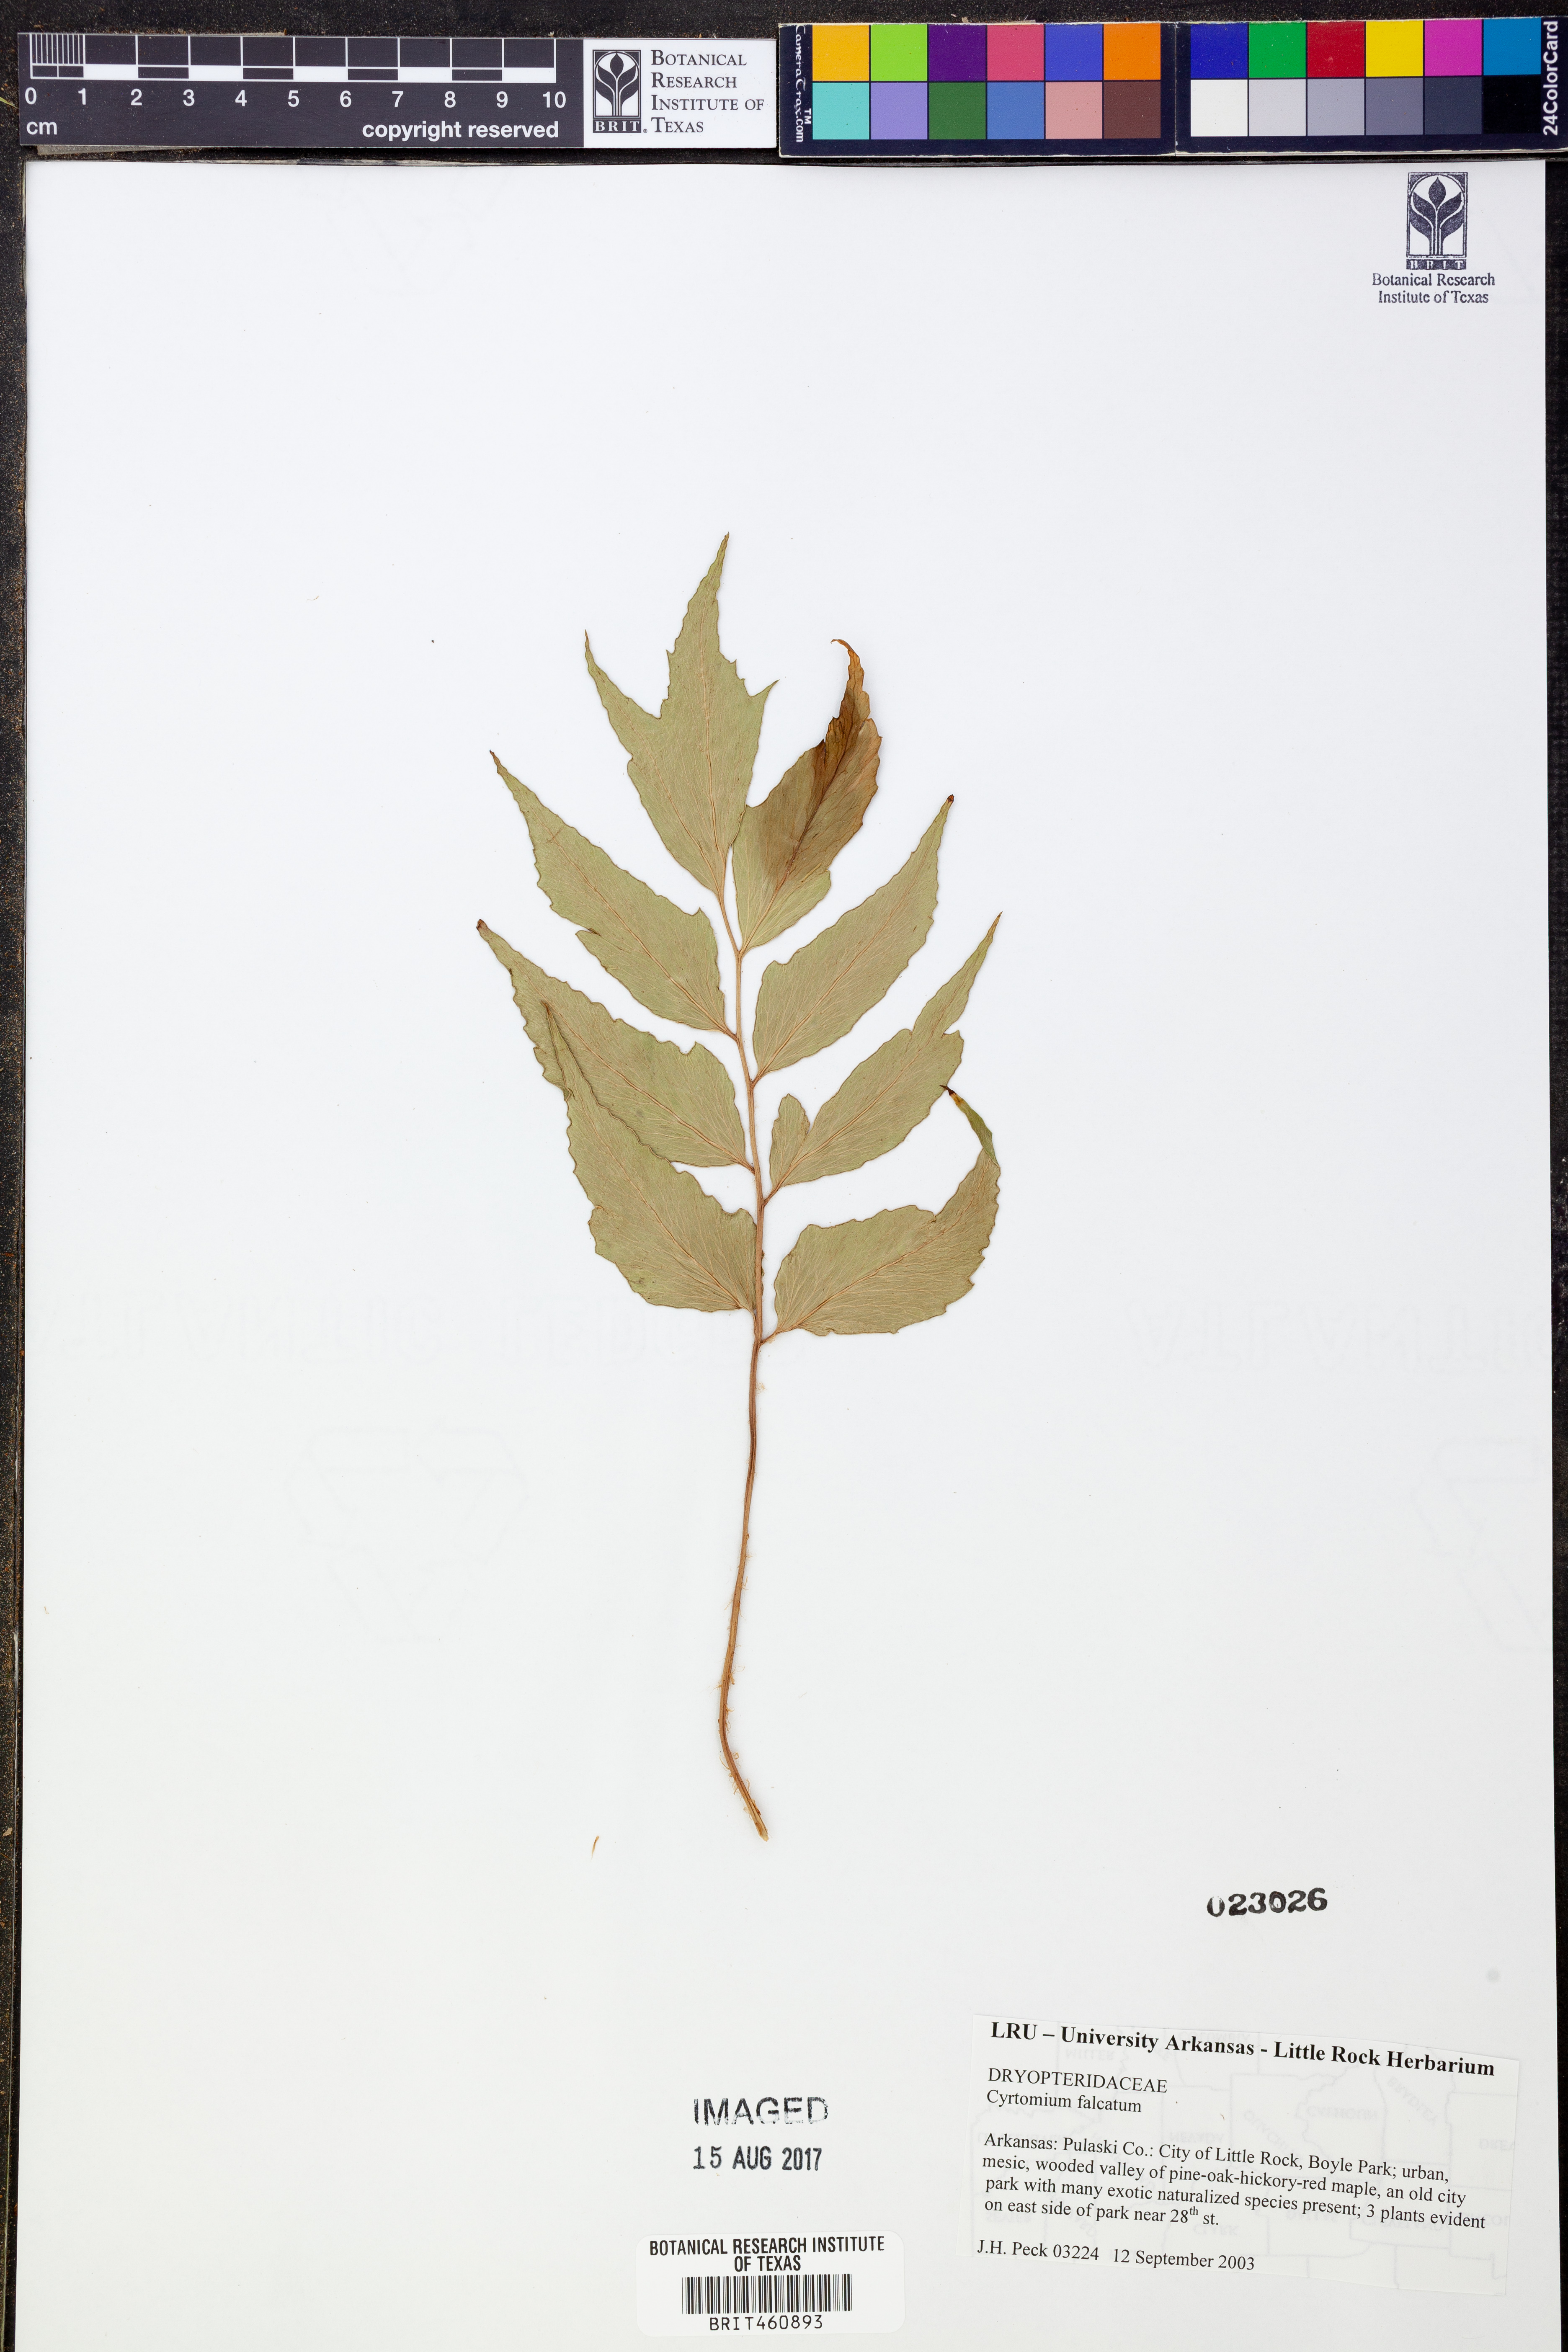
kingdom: Plantae
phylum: Tracheophyta
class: Polypodiopsida
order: Polypodiales
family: Dryopteridaceae
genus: Cyrtomium
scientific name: Cyrtomium falcatum
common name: House holly-fern
